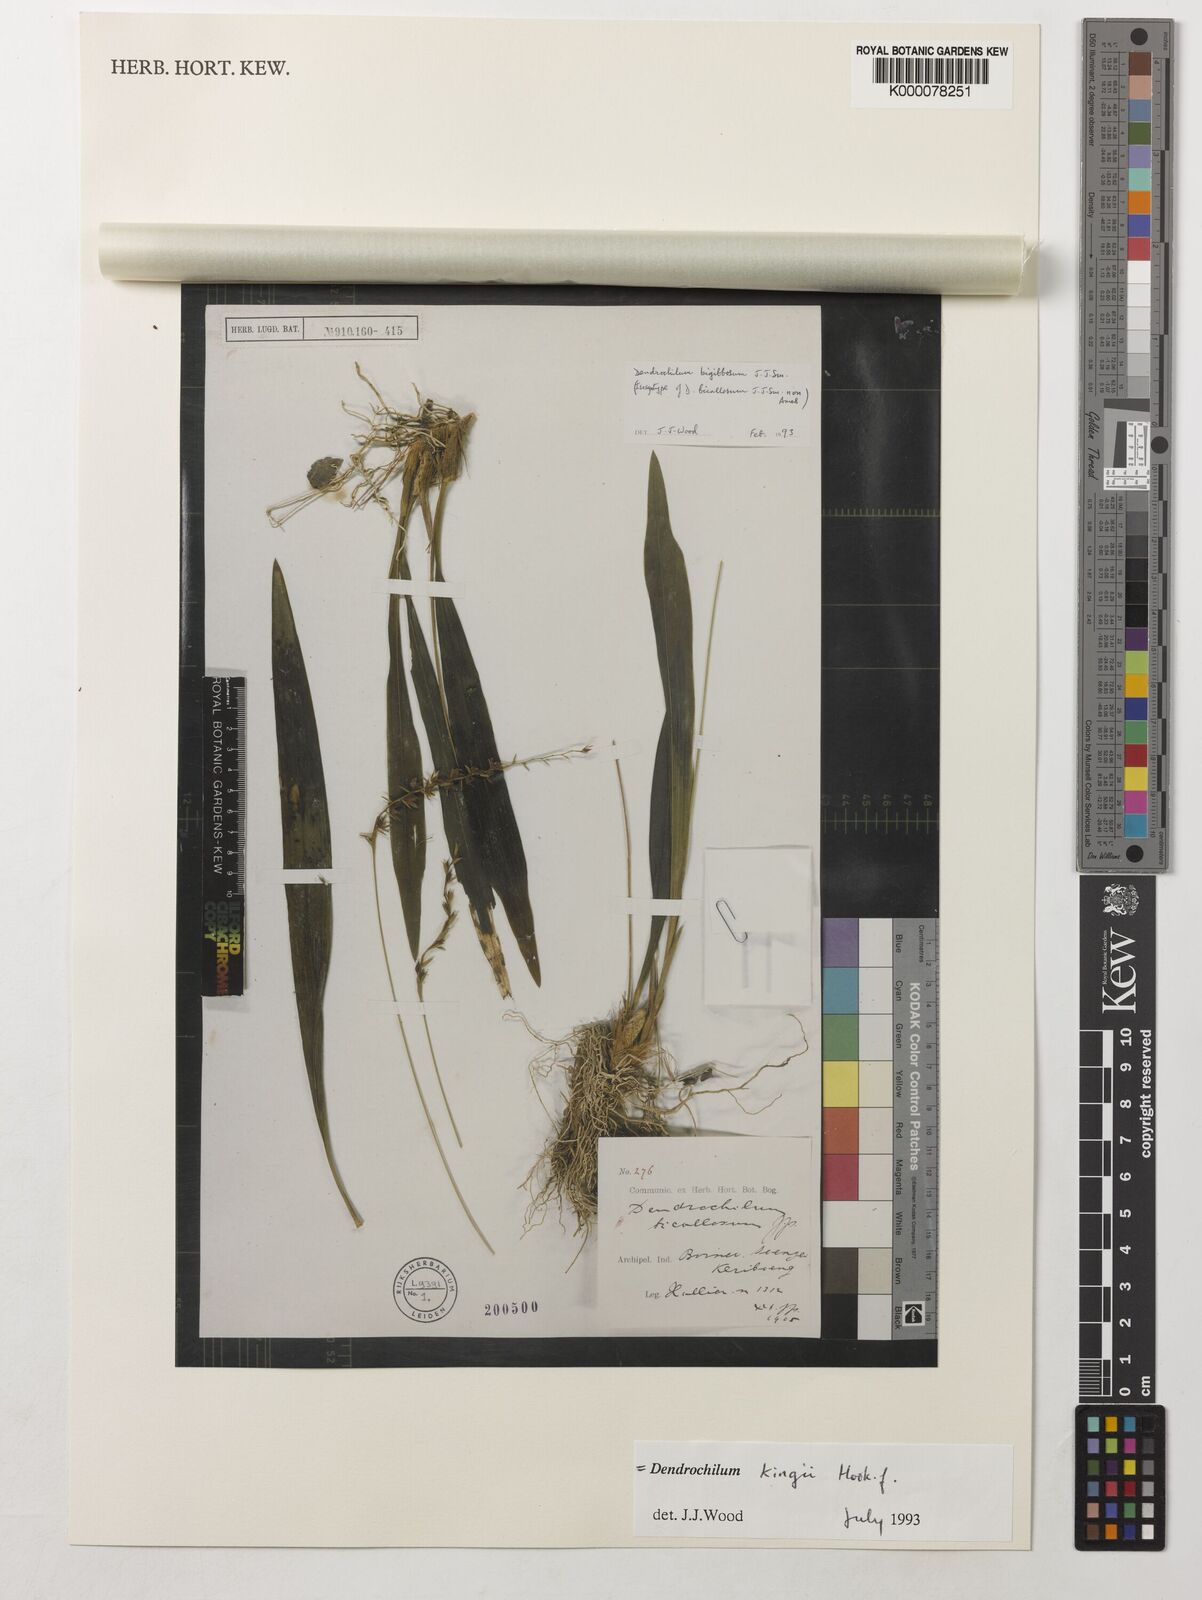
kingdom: Plantae
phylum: Tracheophyta
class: Liliopsida
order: Asparagales
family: Orchidaceae
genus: Coelogyne
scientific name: Coelogyne bigibbosa
